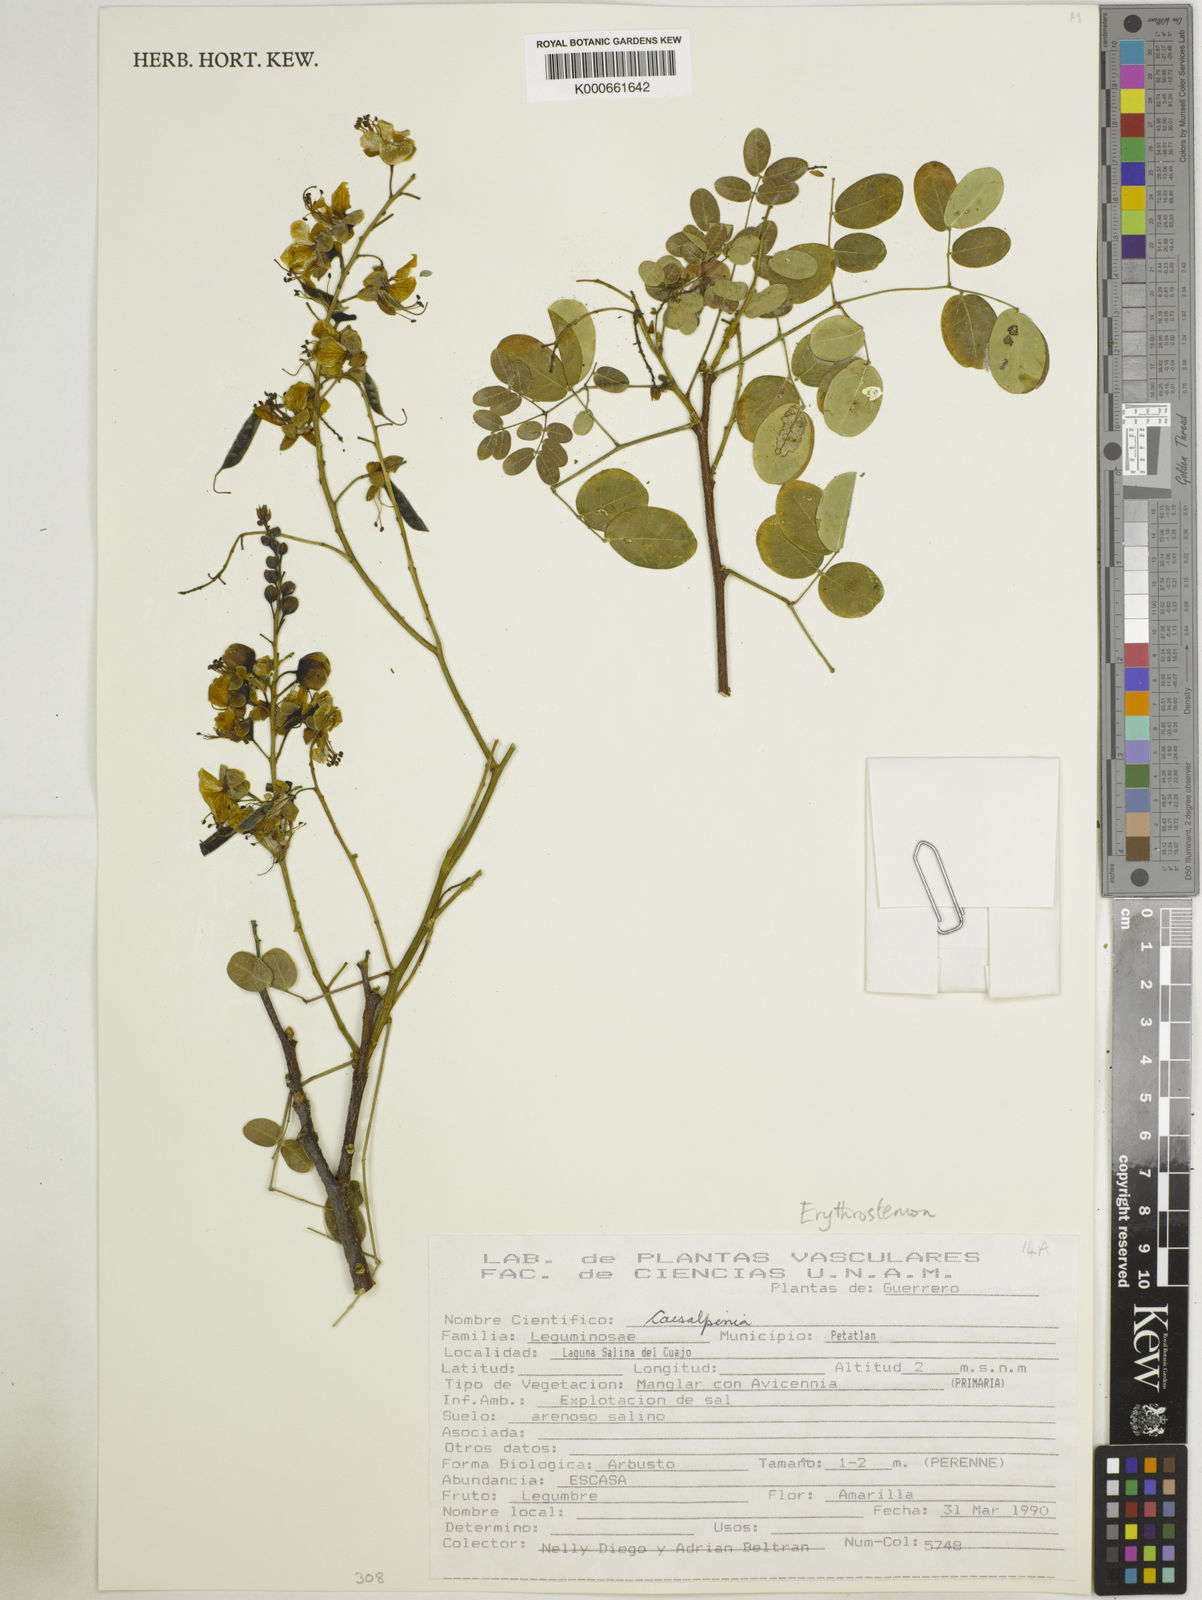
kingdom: Plantae
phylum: Tracheophyta
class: Magnoliopsida
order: Fabales
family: Fabaceae
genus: Caesalpinia
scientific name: Caesalpinia
